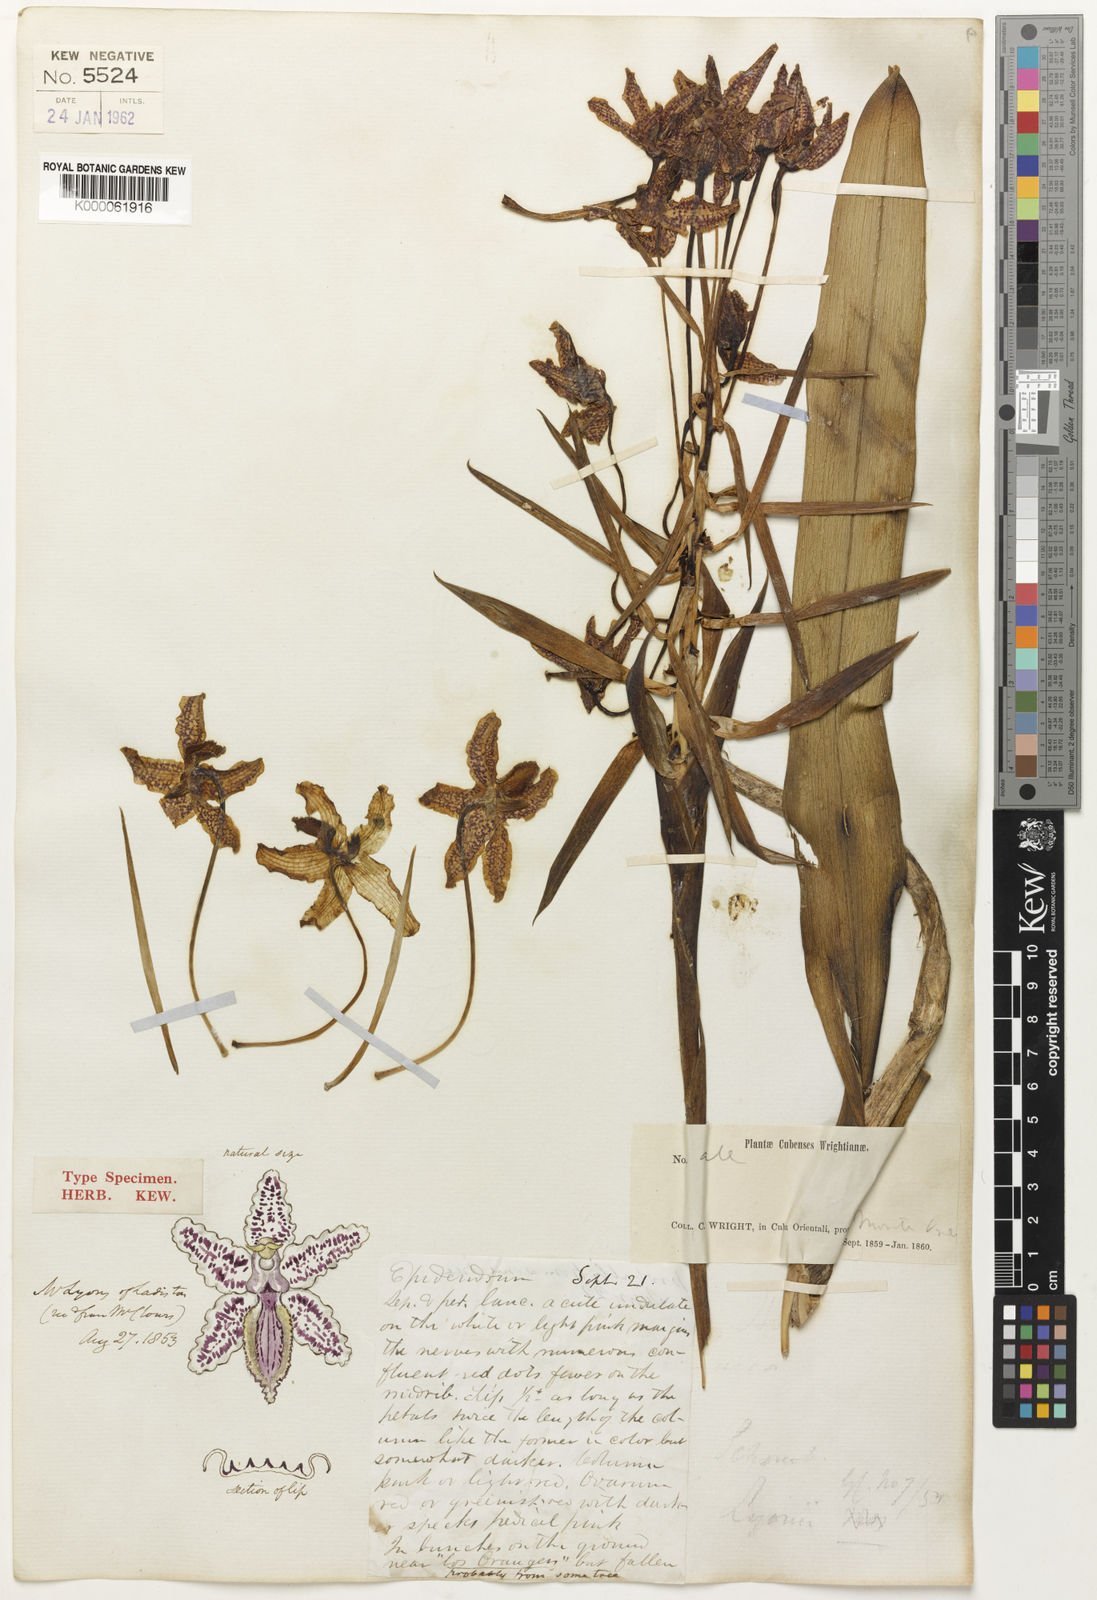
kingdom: Plantae
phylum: Tracheophyta
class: Liliopsida
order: Asparagales
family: Orchidaceae
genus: Laelia
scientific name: Laelia
